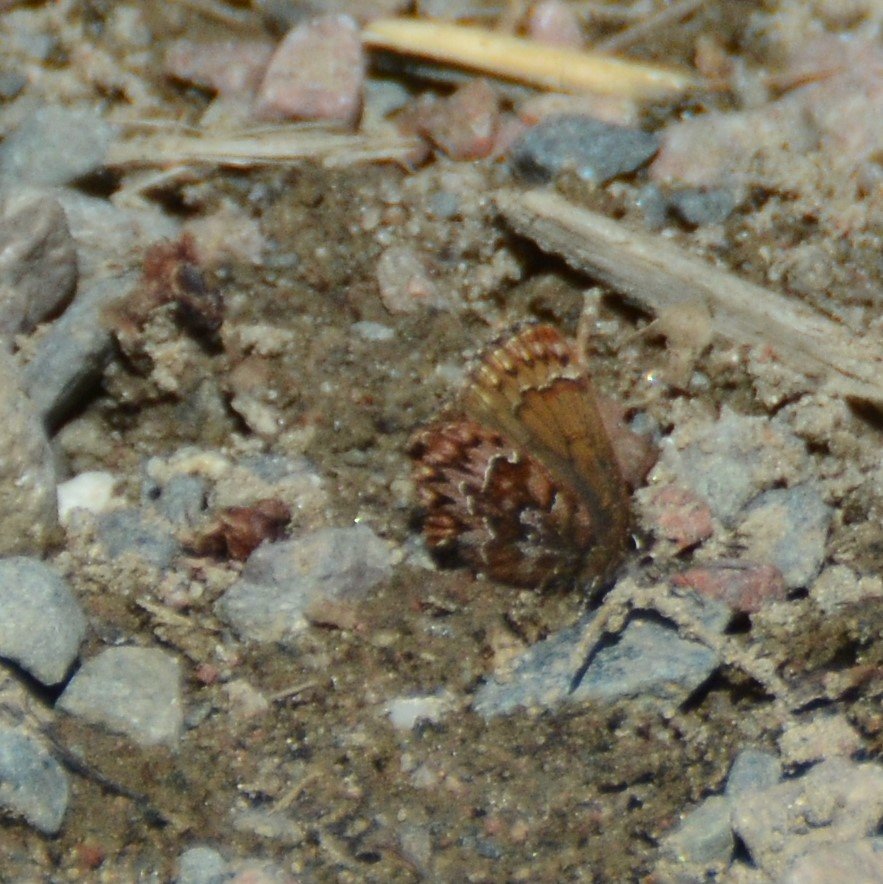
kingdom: Animalia
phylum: Arthropoda
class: Insecta
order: Lepidoptera
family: Lycaenidae
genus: Incisalia
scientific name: Incisalia eryphon
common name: Western Pine Elfin
